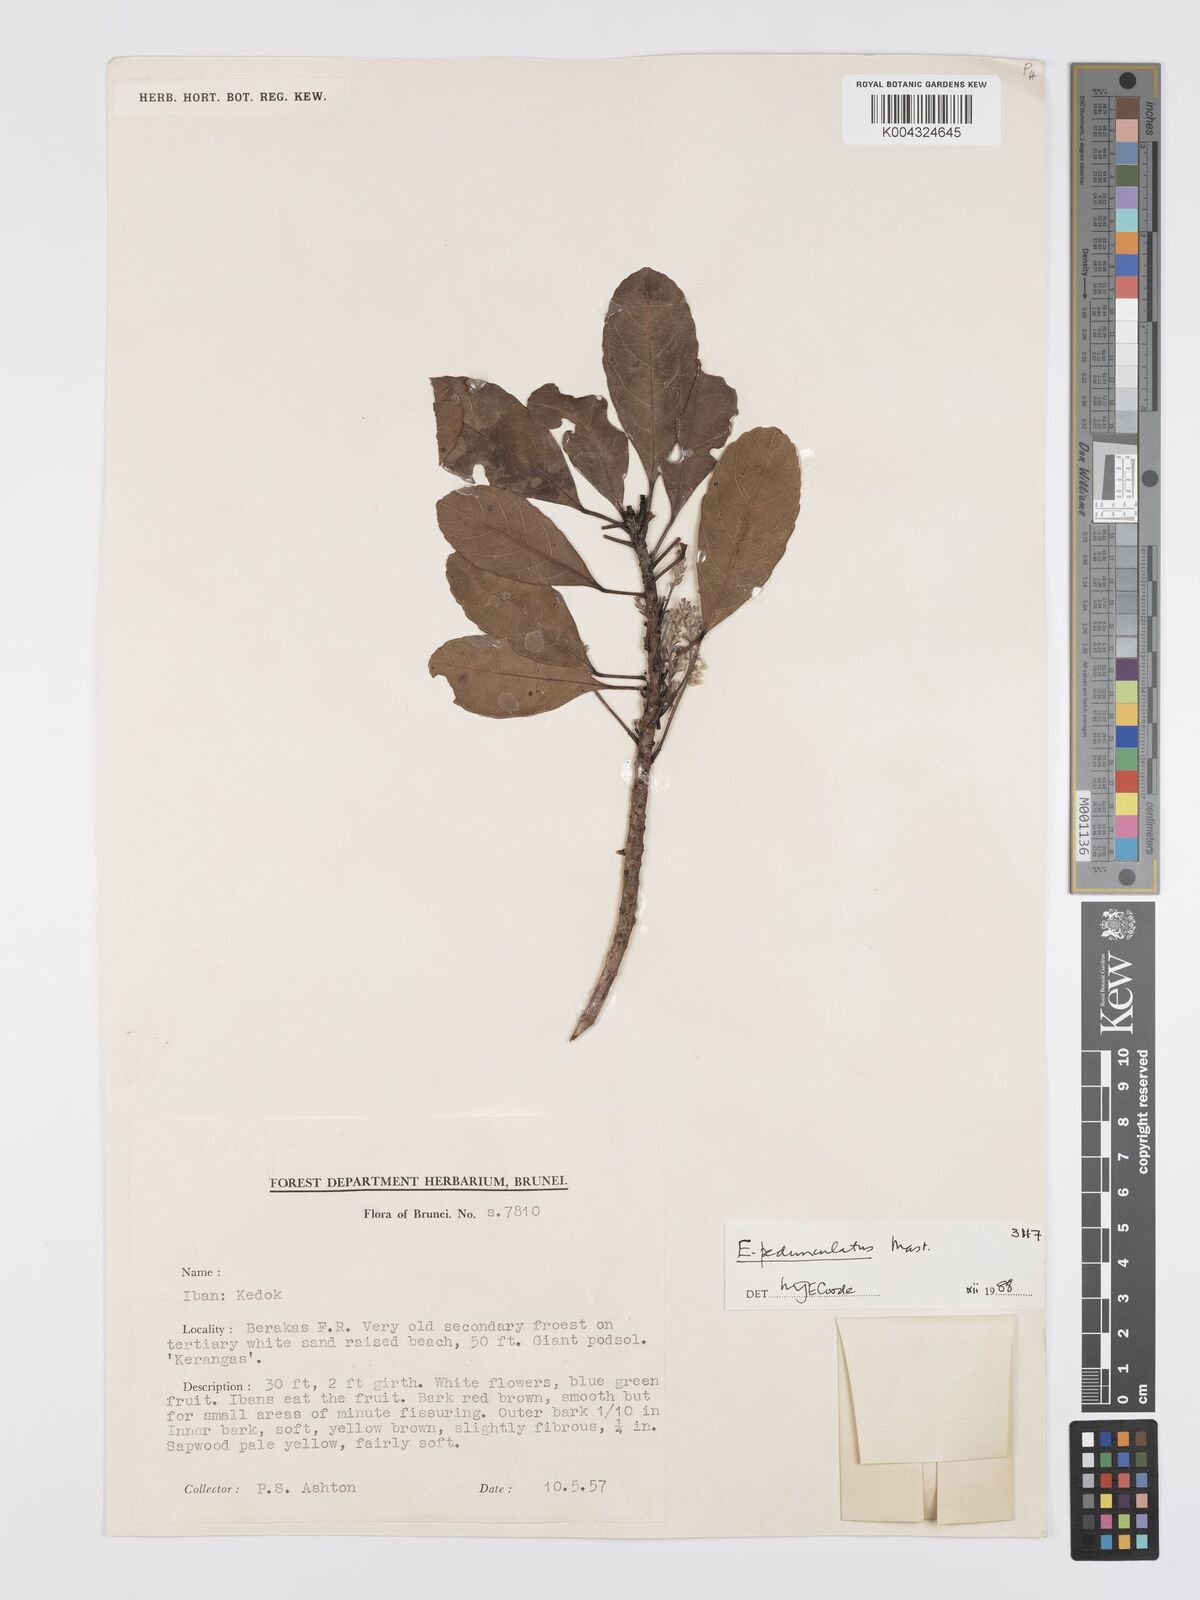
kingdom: Plantae
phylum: Tracheophyta
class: Magnoliopsida
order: Oxalidales
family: Elaeocarpaceae
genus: Elaeocarpus
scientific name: Elaeocarpus pedunculatus
